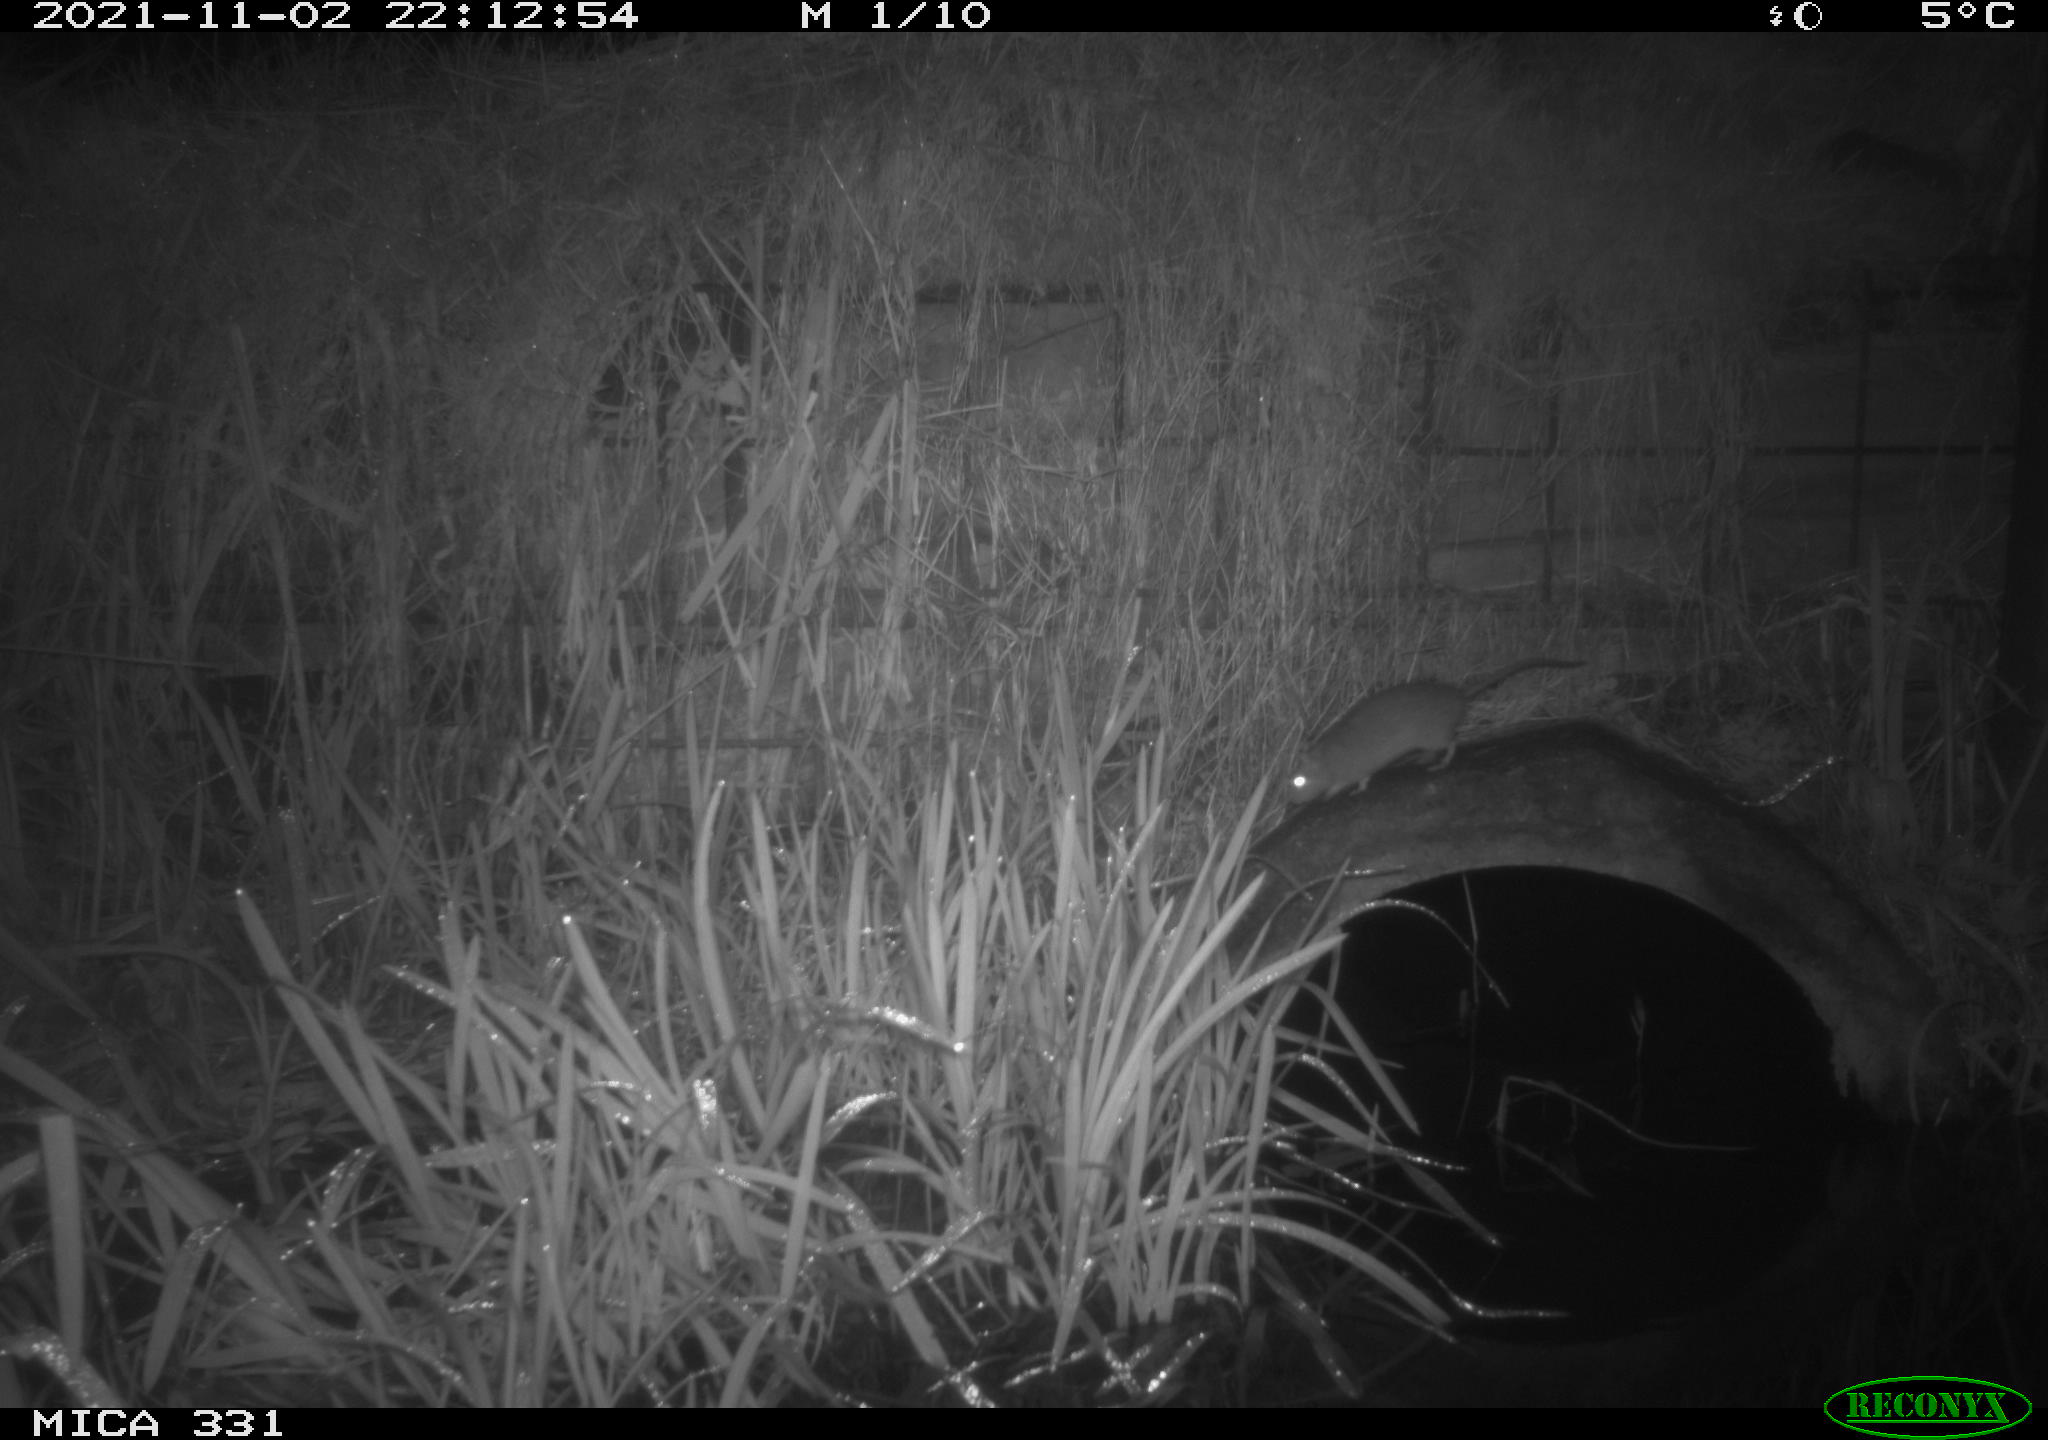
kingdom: Animalia
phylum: Chordata
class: Mammalia
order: Rodentia
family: Muridae
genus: Rattus
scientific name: Rattus norvegicus
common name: Brown rat
